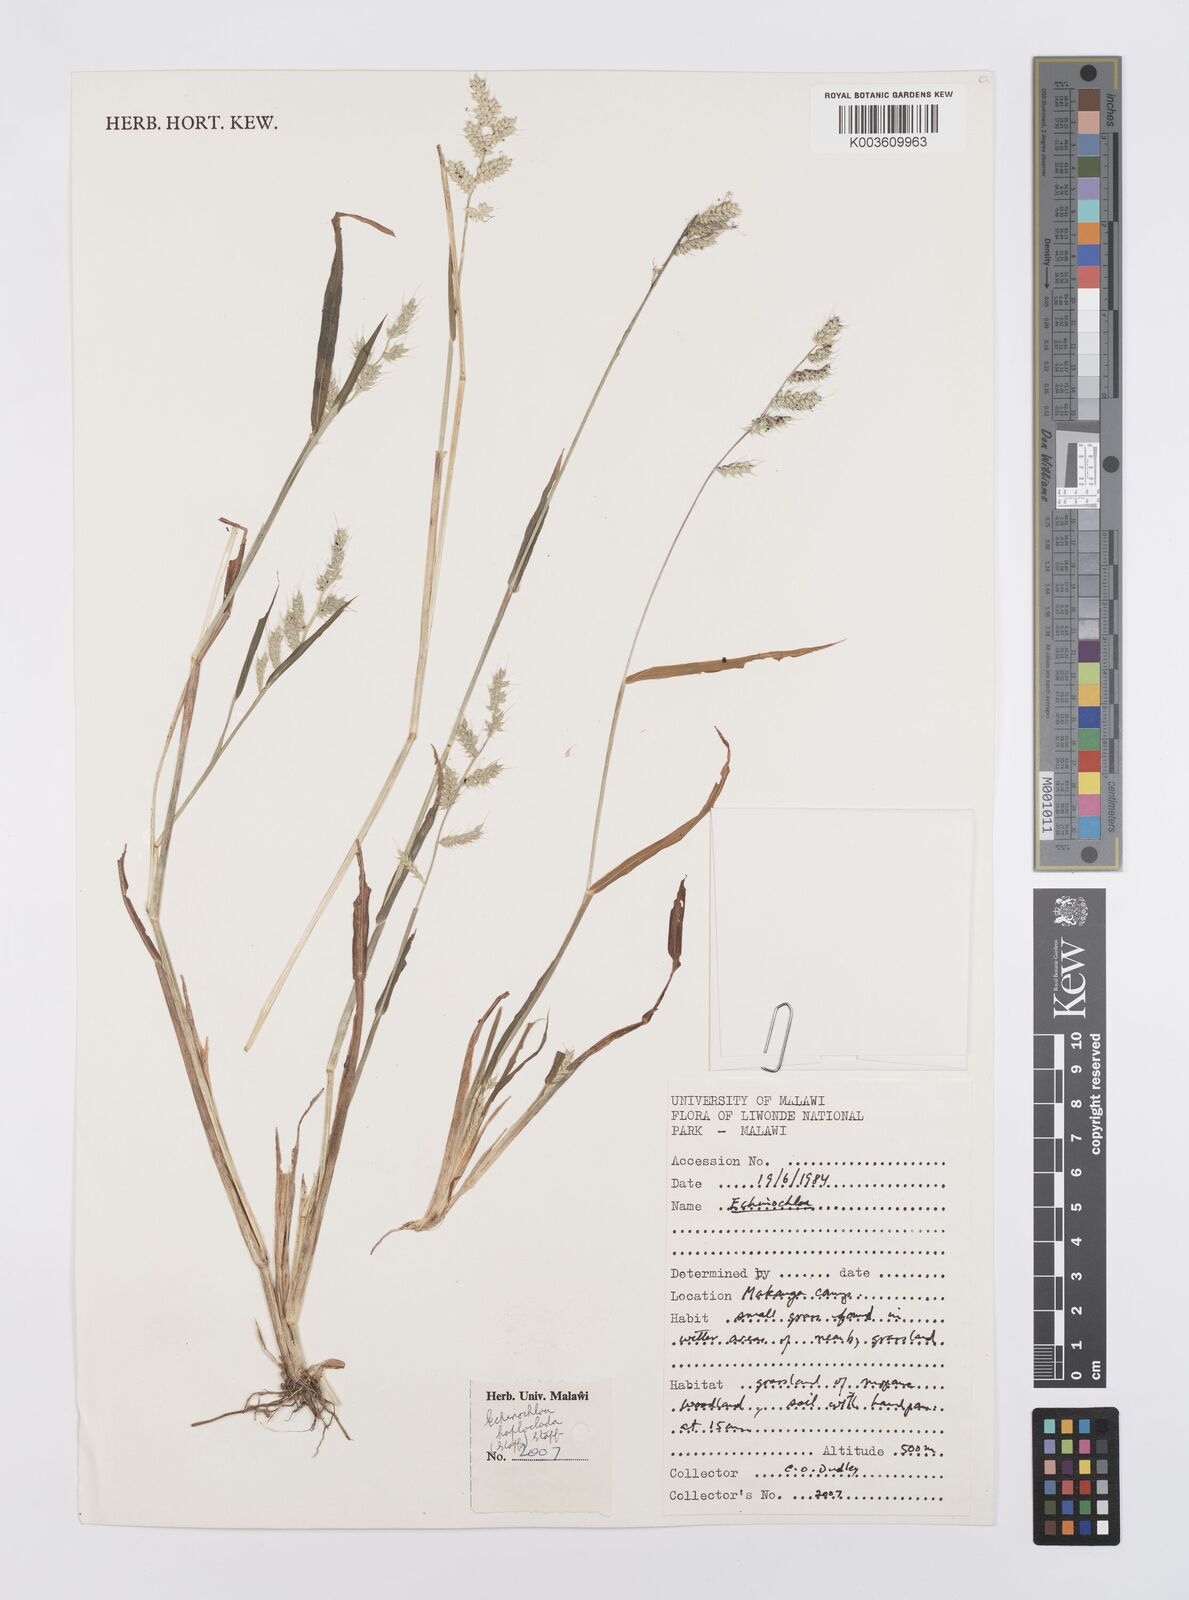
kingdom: Plantae
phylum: Tracheophyta
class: Liliopsida
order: Poales
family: Poaceae
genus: Echinochloa
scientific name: Echinochloa haploclada
